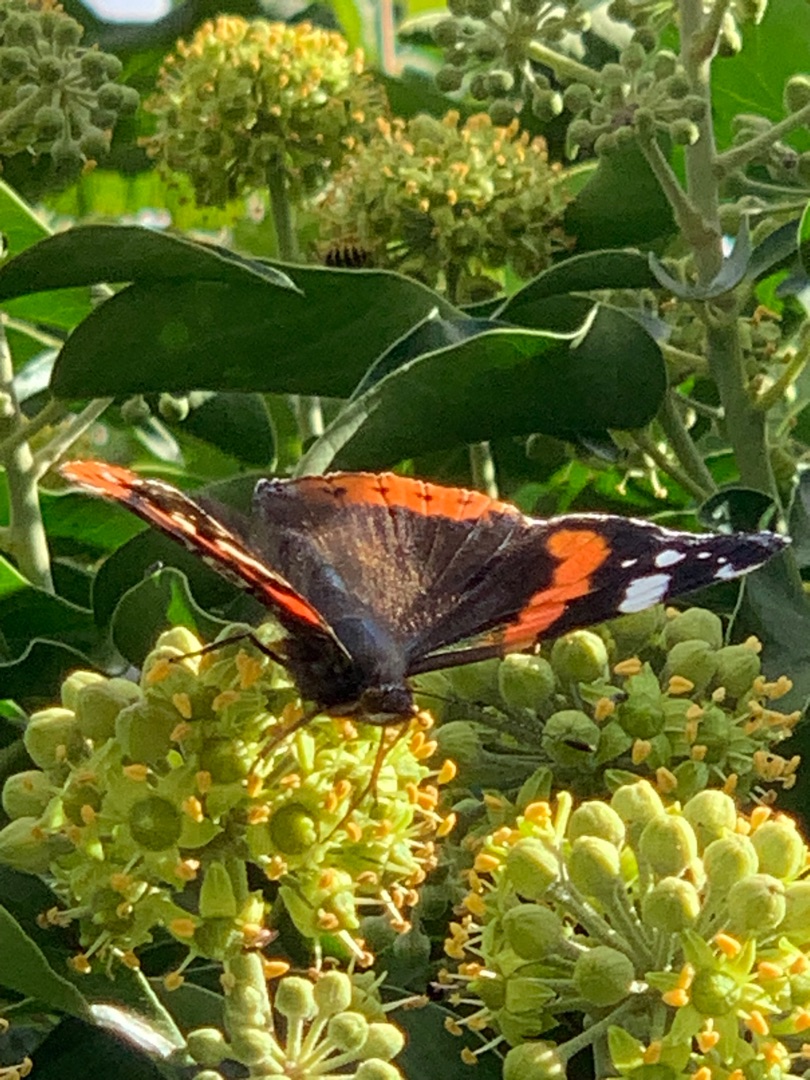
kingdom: Animalia
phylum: Arthropoda
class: Insecta
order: Lepidoptera
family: Nymphalidae
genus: Vanessa
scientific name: Vanessa atalanta
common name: Admiral
